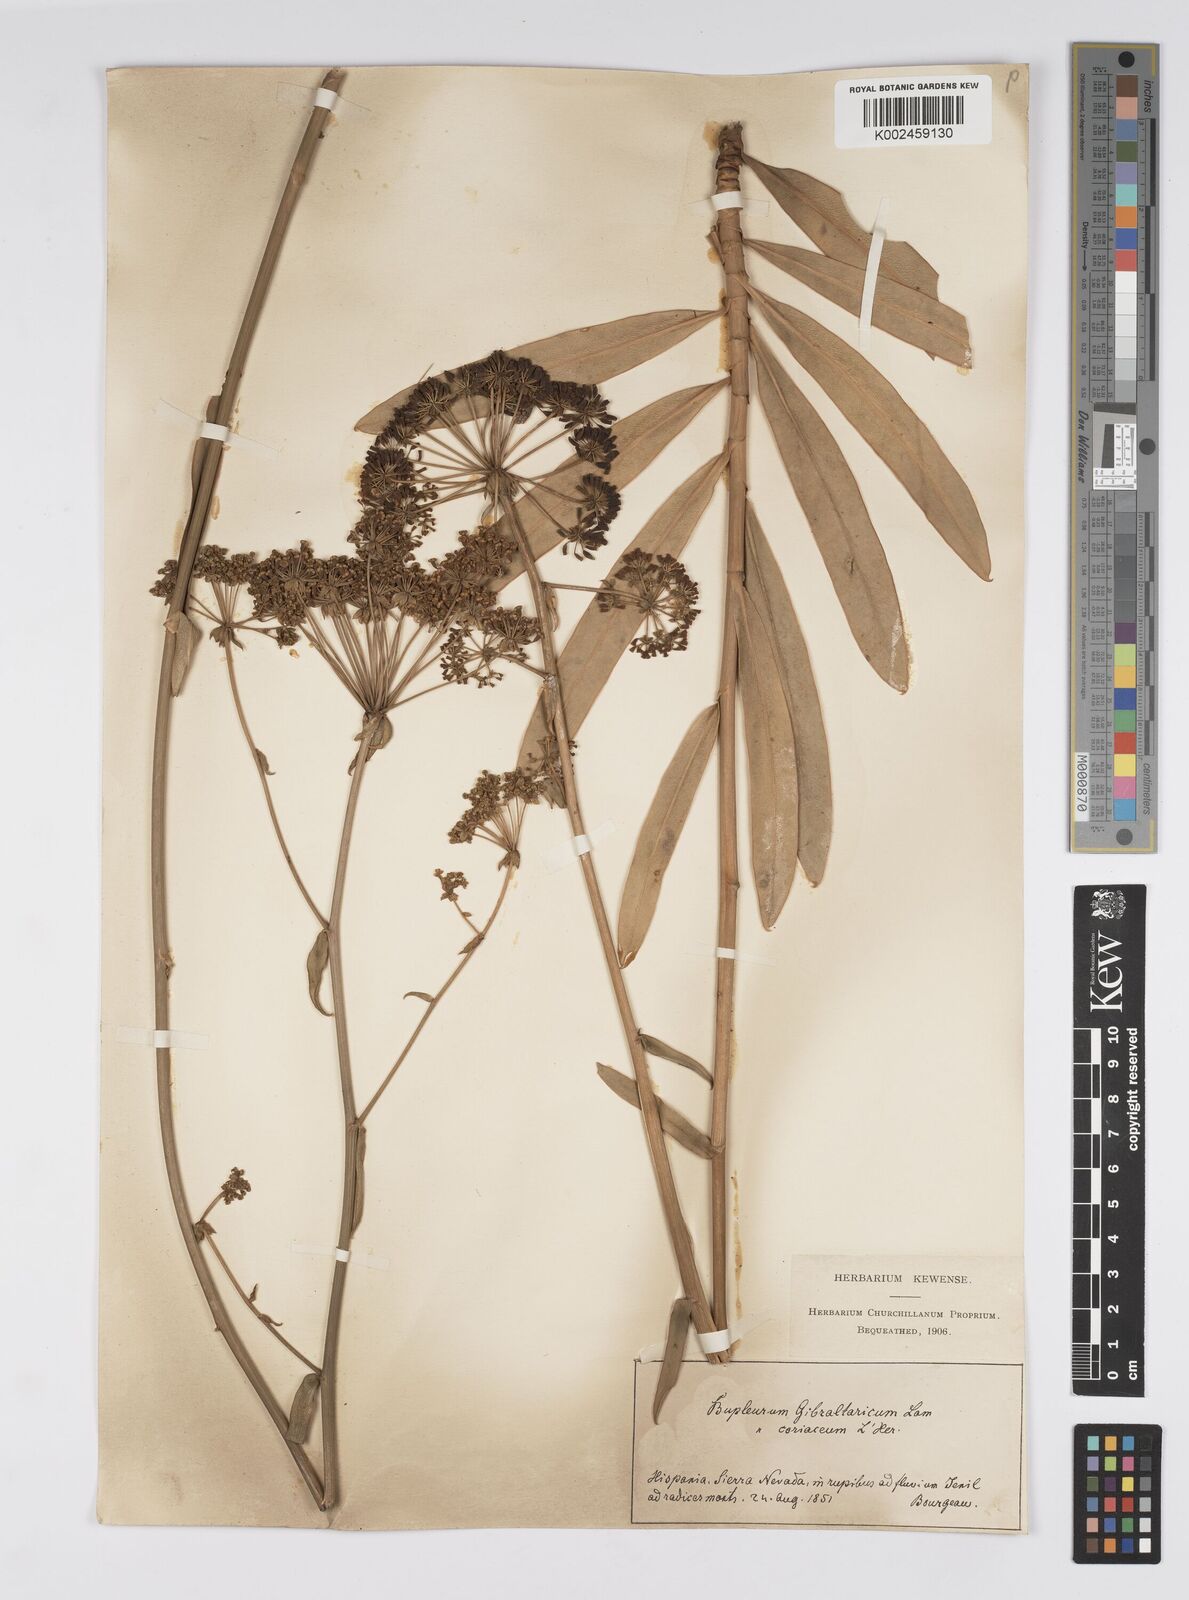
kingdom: Plantae
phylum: Tracheophyta
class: Magnoliopsida
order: Apiales
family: Apiaceae
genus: Bupleurum
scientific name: Bupleurum gibraltaricum
